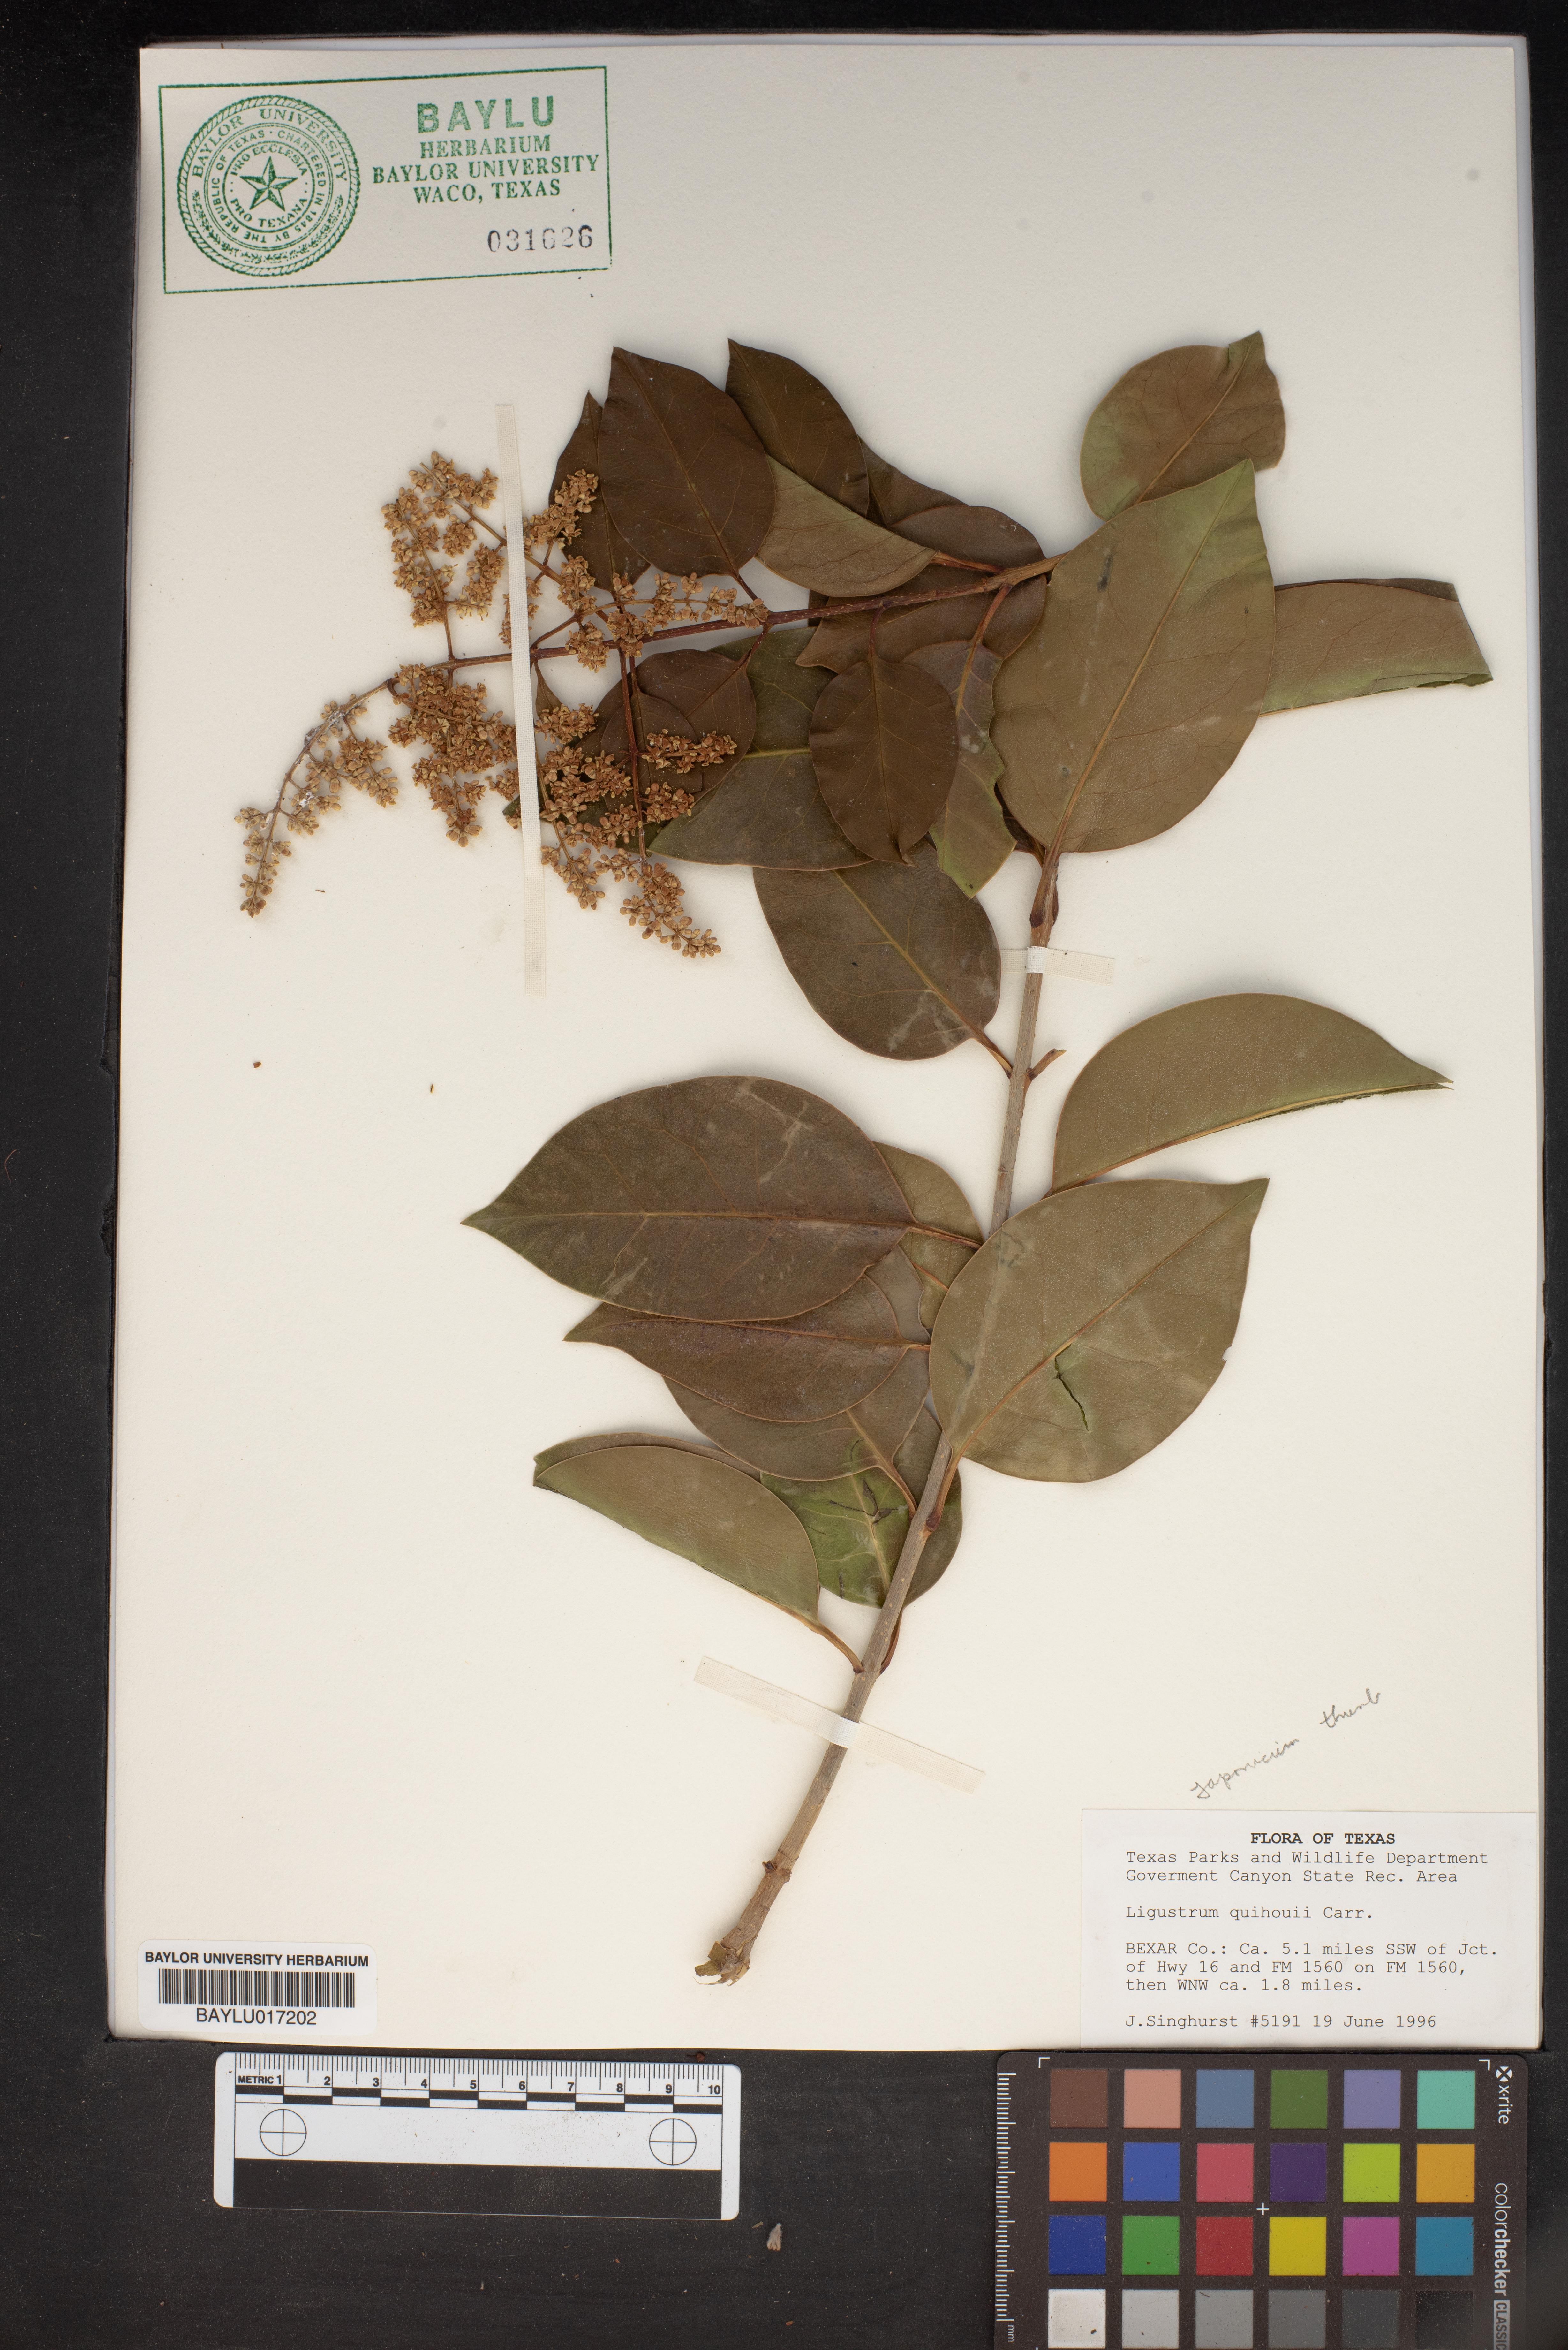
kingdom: Plantae
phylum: Tracheophyta
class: Magnoliopsida
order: Lamiales
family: Oleaceae
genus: Ligustrum
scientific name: Ligustrum quihoui
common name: Waxyleaf privet
